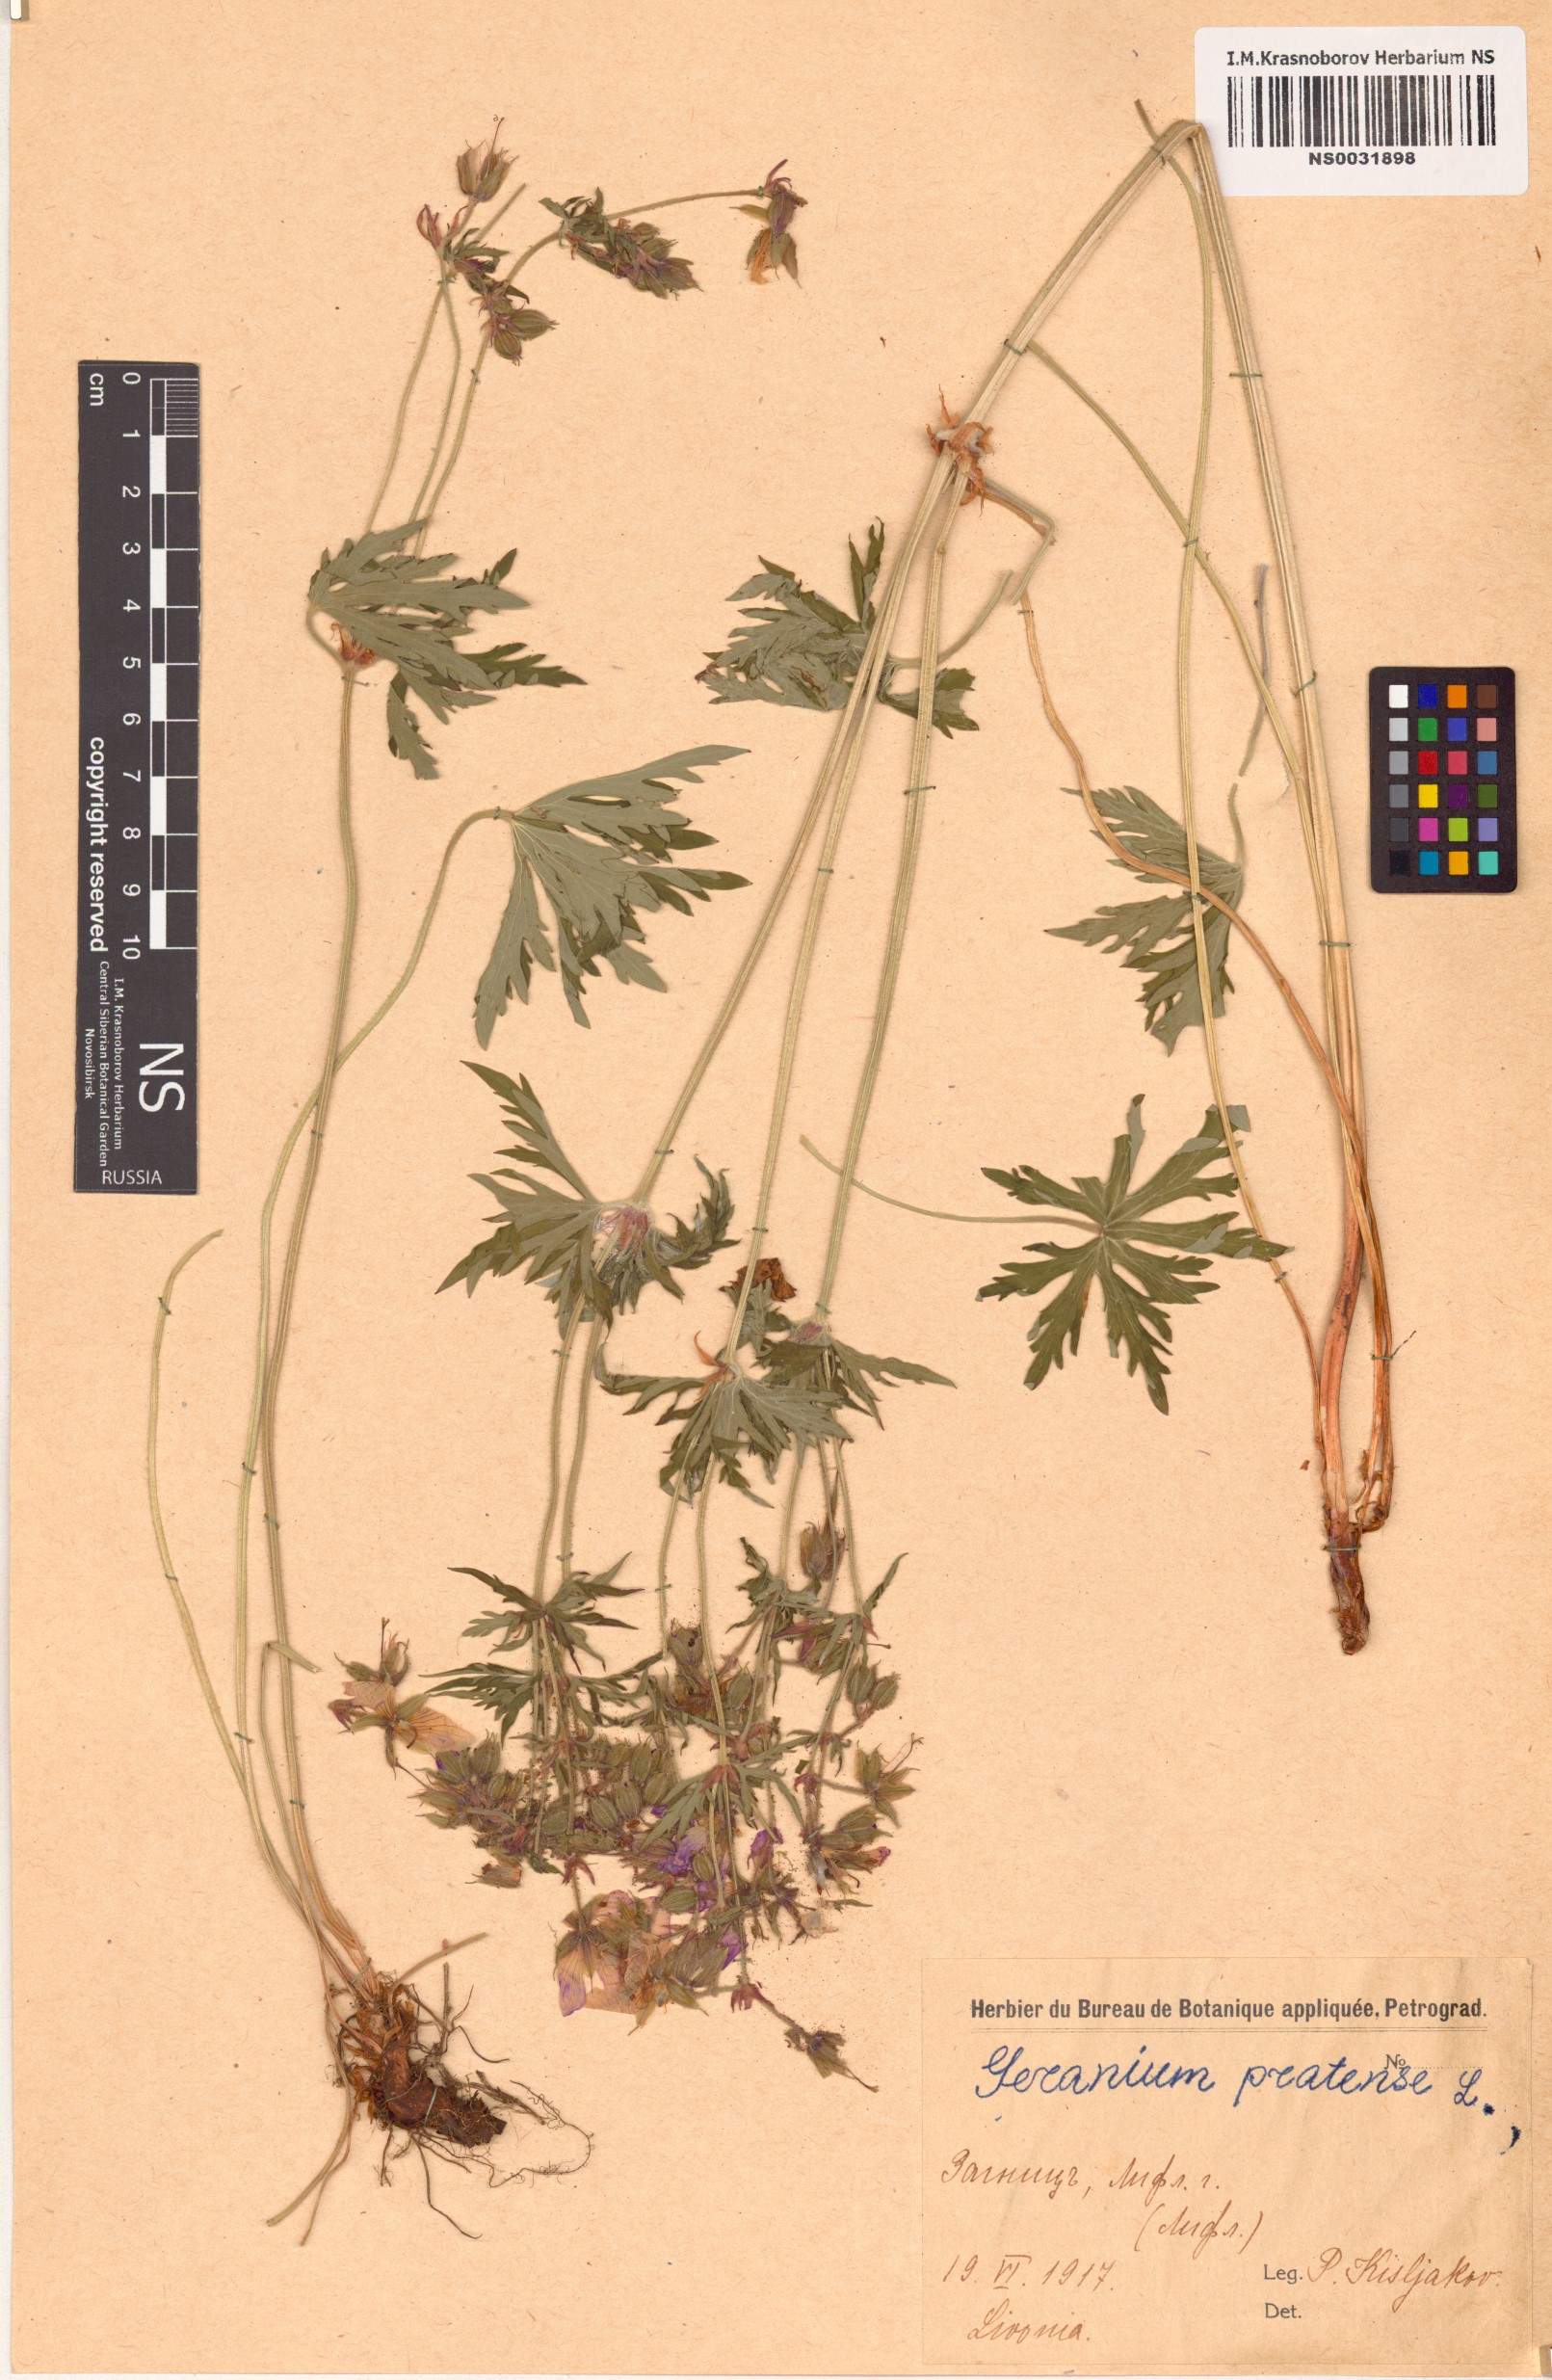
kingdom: Plantae
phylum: Tracheophyta
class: Magnoliopsida
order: Geraniales
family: Geraniaceae
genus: Geranium
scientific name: Geranium pratense
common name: Meadow crane's-bill
